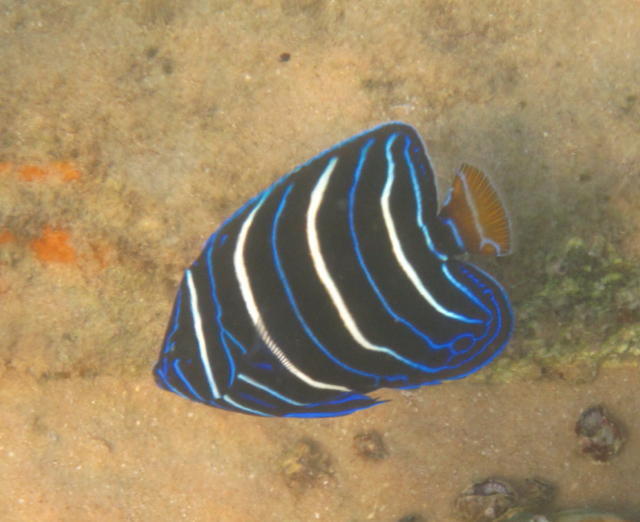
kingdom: Animalia
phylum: Chordata
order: Perciformes
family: Pomacanthidae
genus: Pomacanthus
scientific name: Pomacanthus chrysurus
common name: Goldtail angelfish
